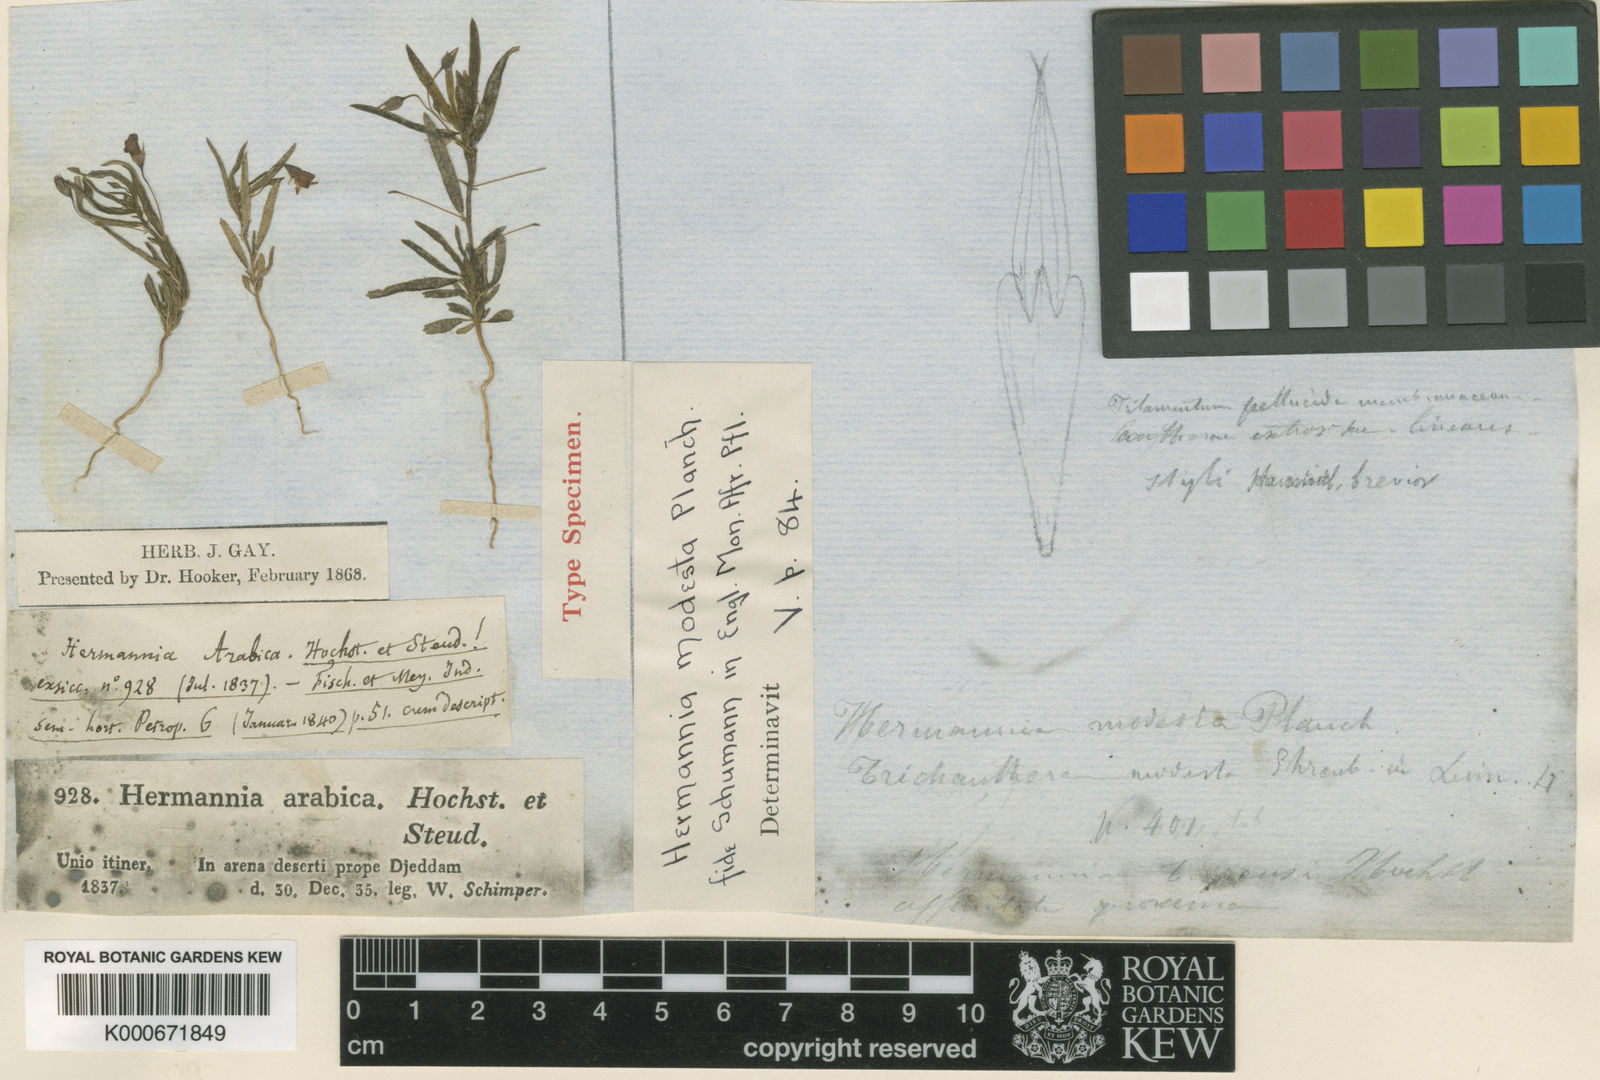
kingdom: Plantae
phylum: Tracheophyta
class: Magnoliopsida
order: Malvales
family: Malvaceae
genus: Hermannia
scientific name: Hermannia
